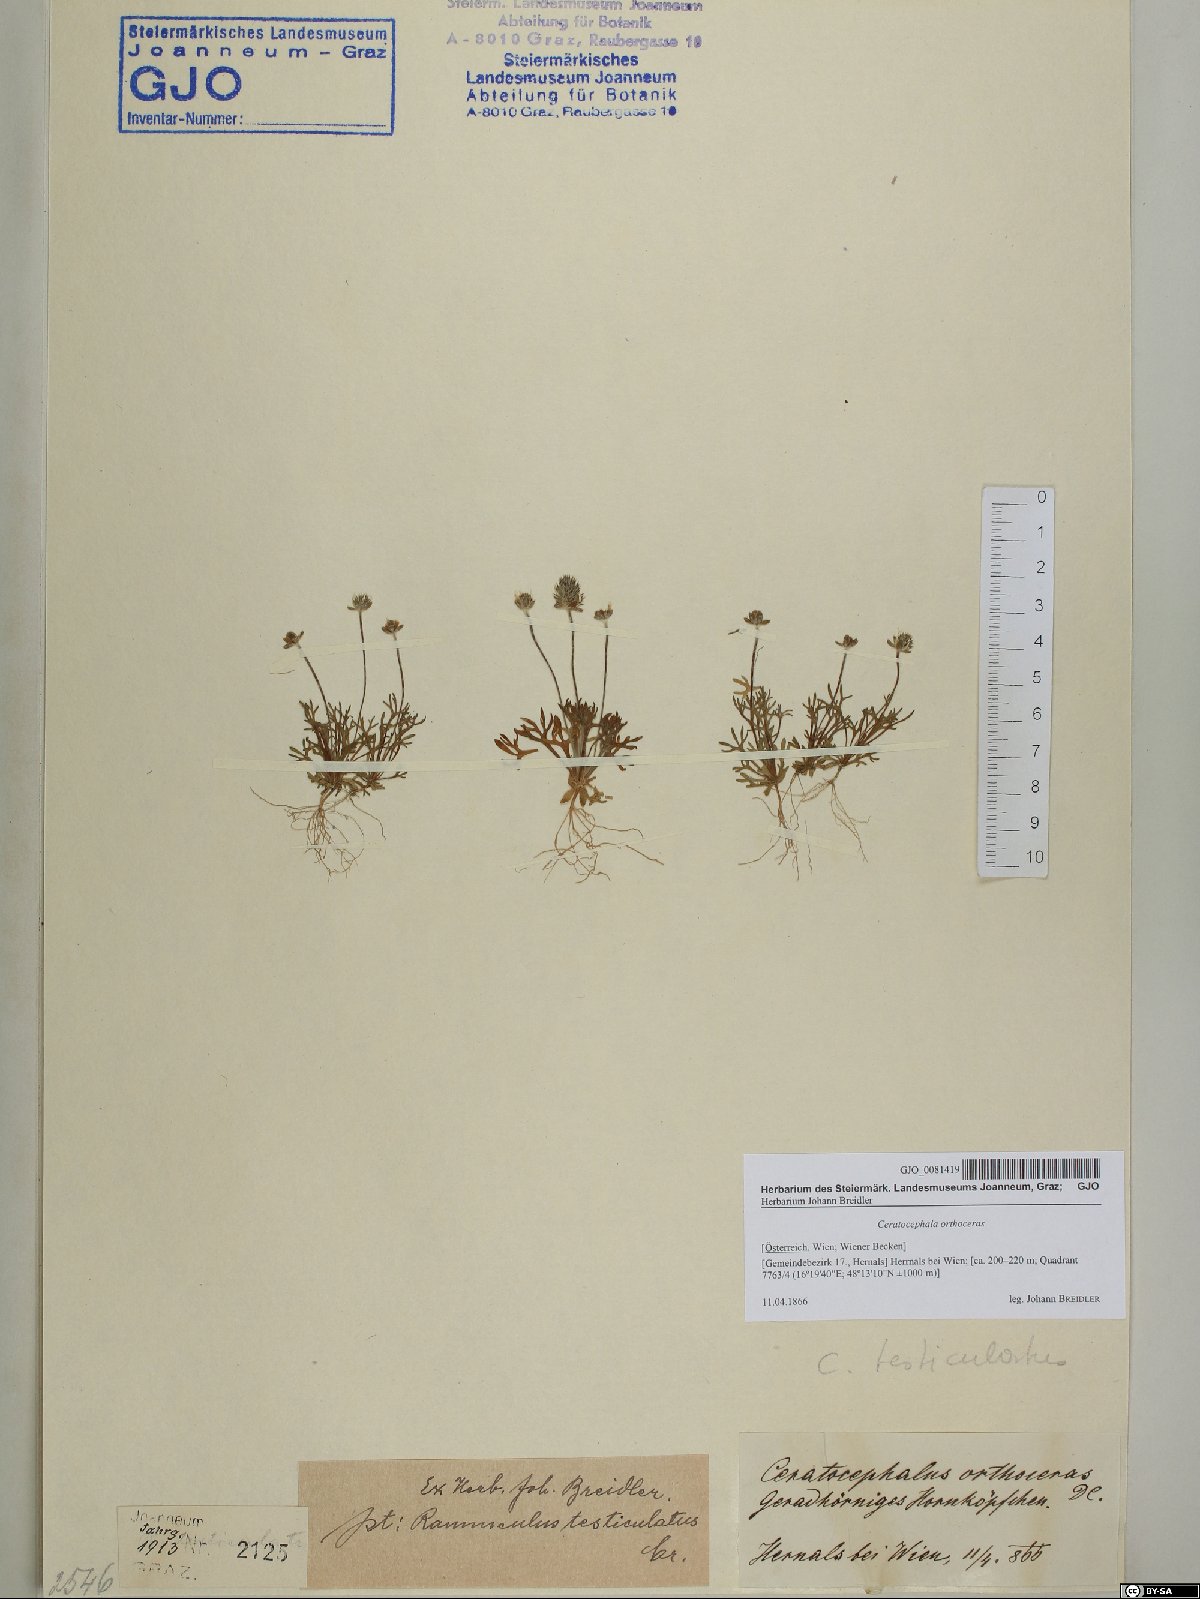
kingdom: Plantae
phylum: Tracheophyta
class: Magnoliopsida
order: Ranunculales
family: Ranunculaceae
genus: Ceratocephala
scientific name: Ceratocephala orthoceras
